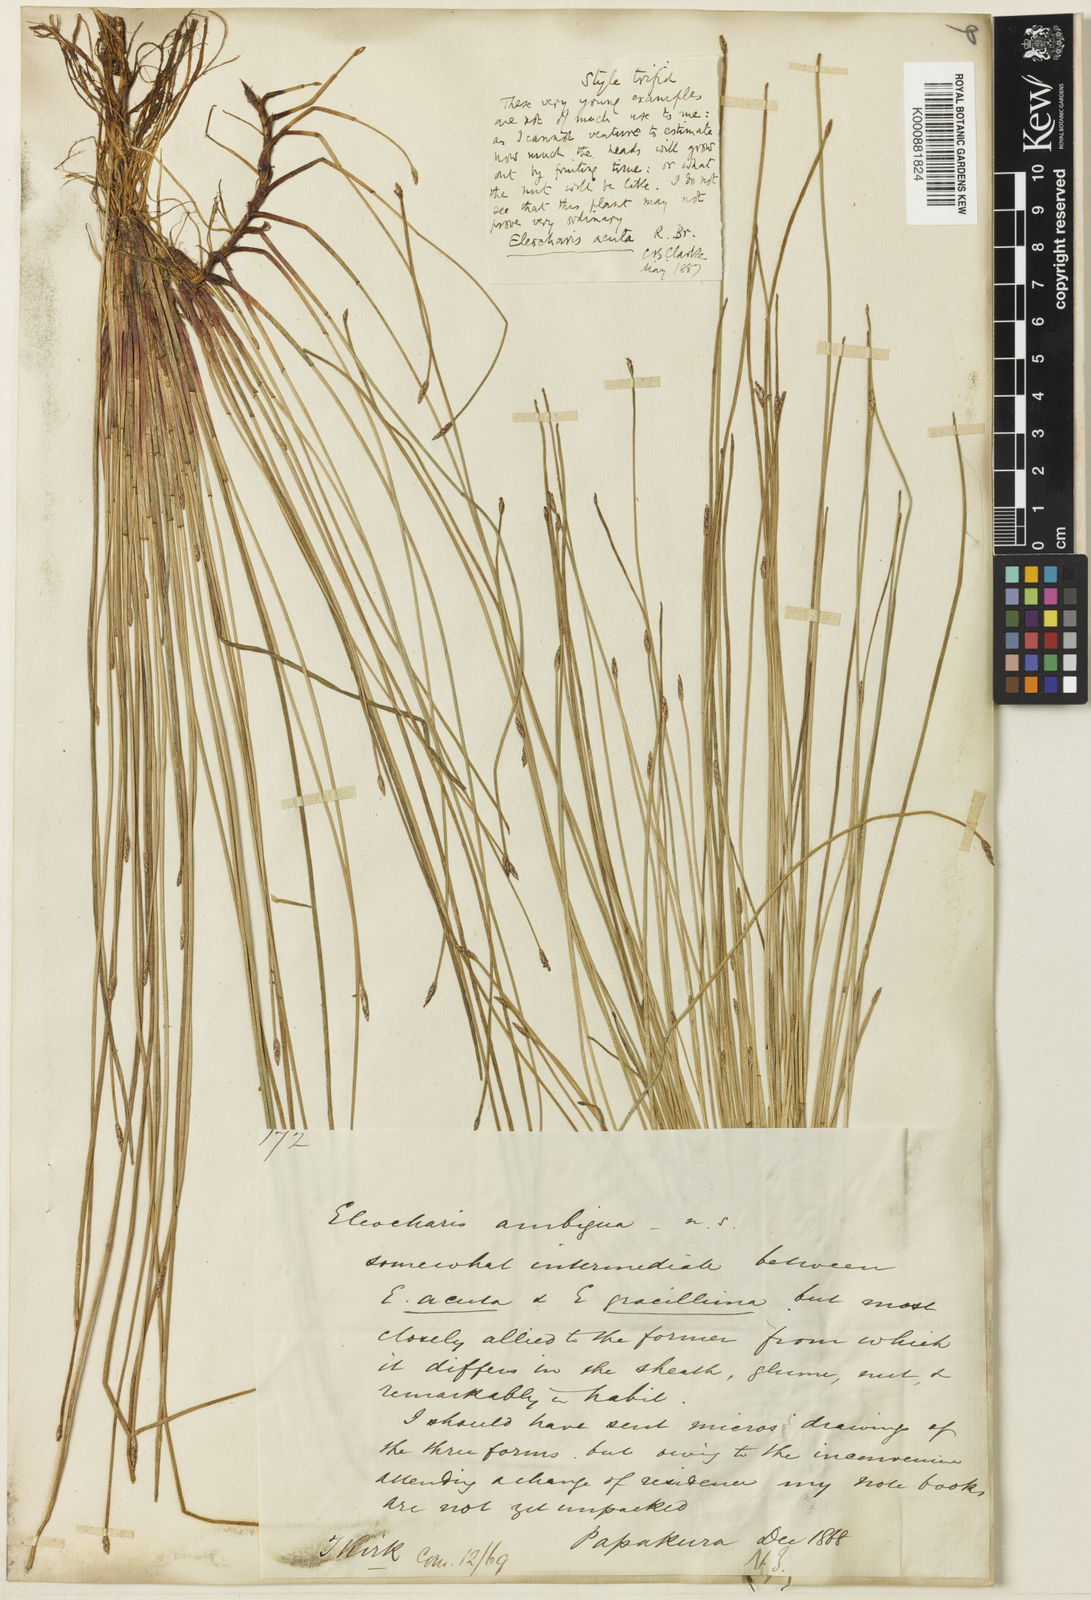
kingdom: Plantae
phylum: Tracheophyta
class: Liliopsida
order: Poales
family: Cyperaceae
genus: Eleocharis
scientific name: Eleocharis acuta
